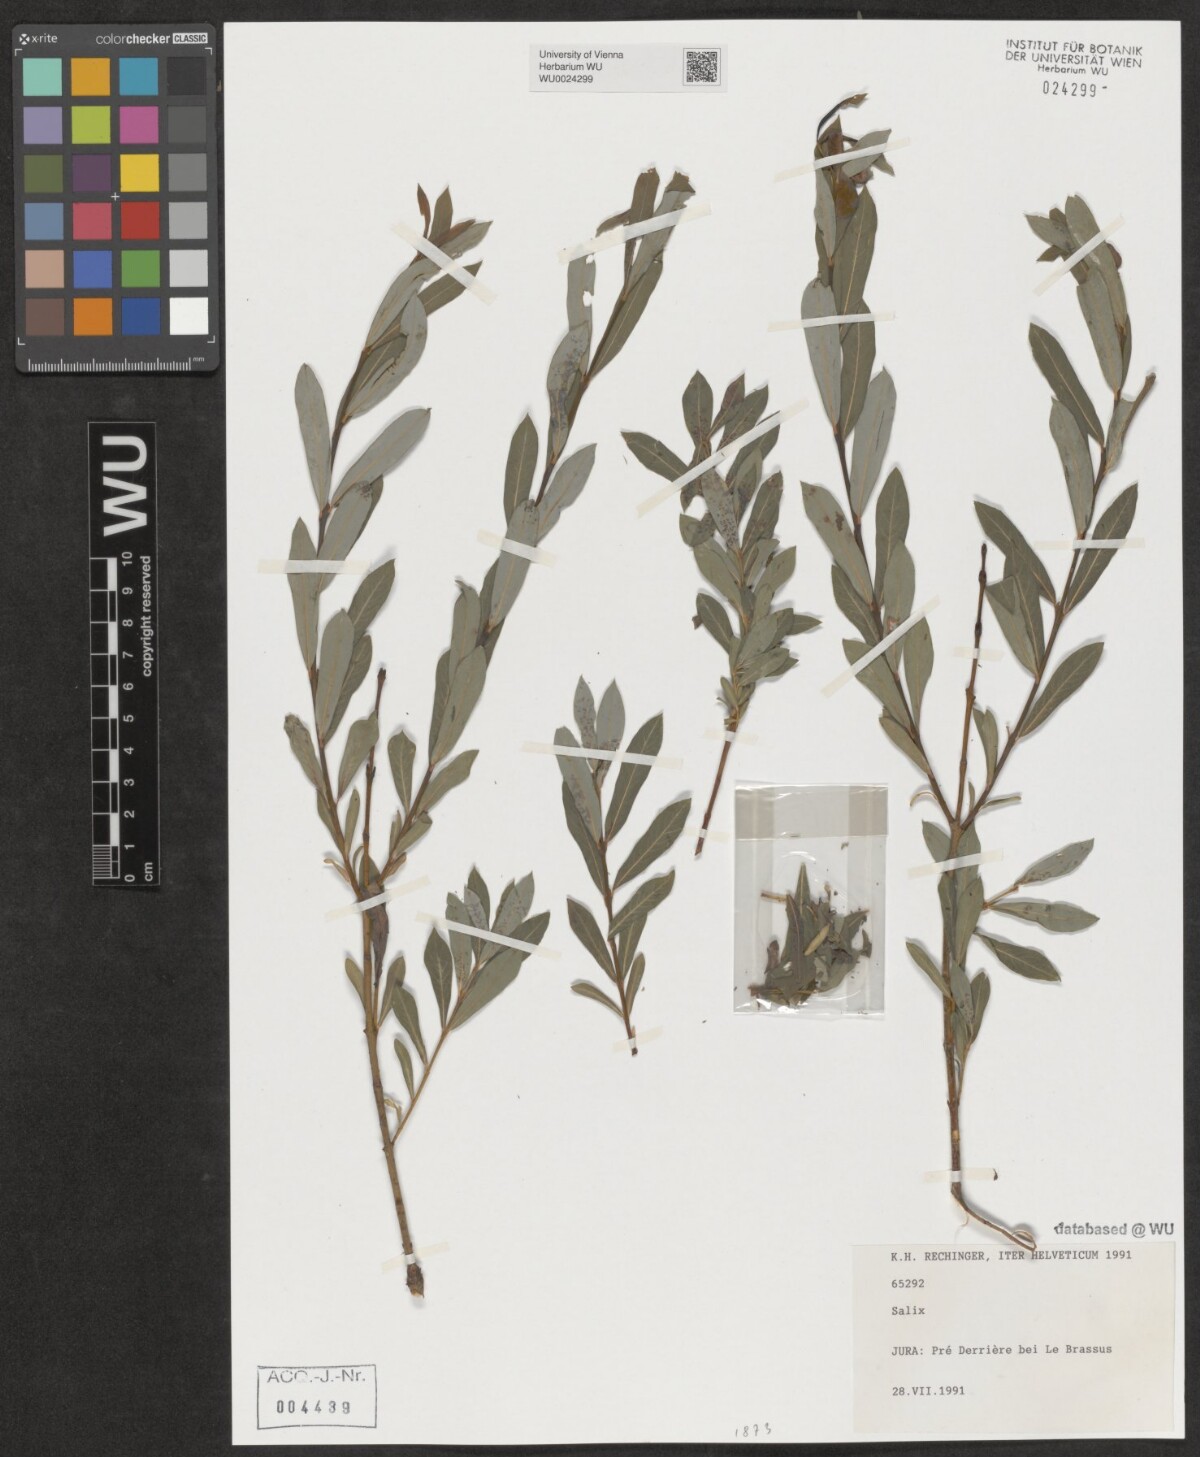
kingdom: Plantae
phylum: Tracheophyta
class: Magnoliopsida
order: Malpighiales
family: Salicaceae
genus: Salix
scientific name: Salix
